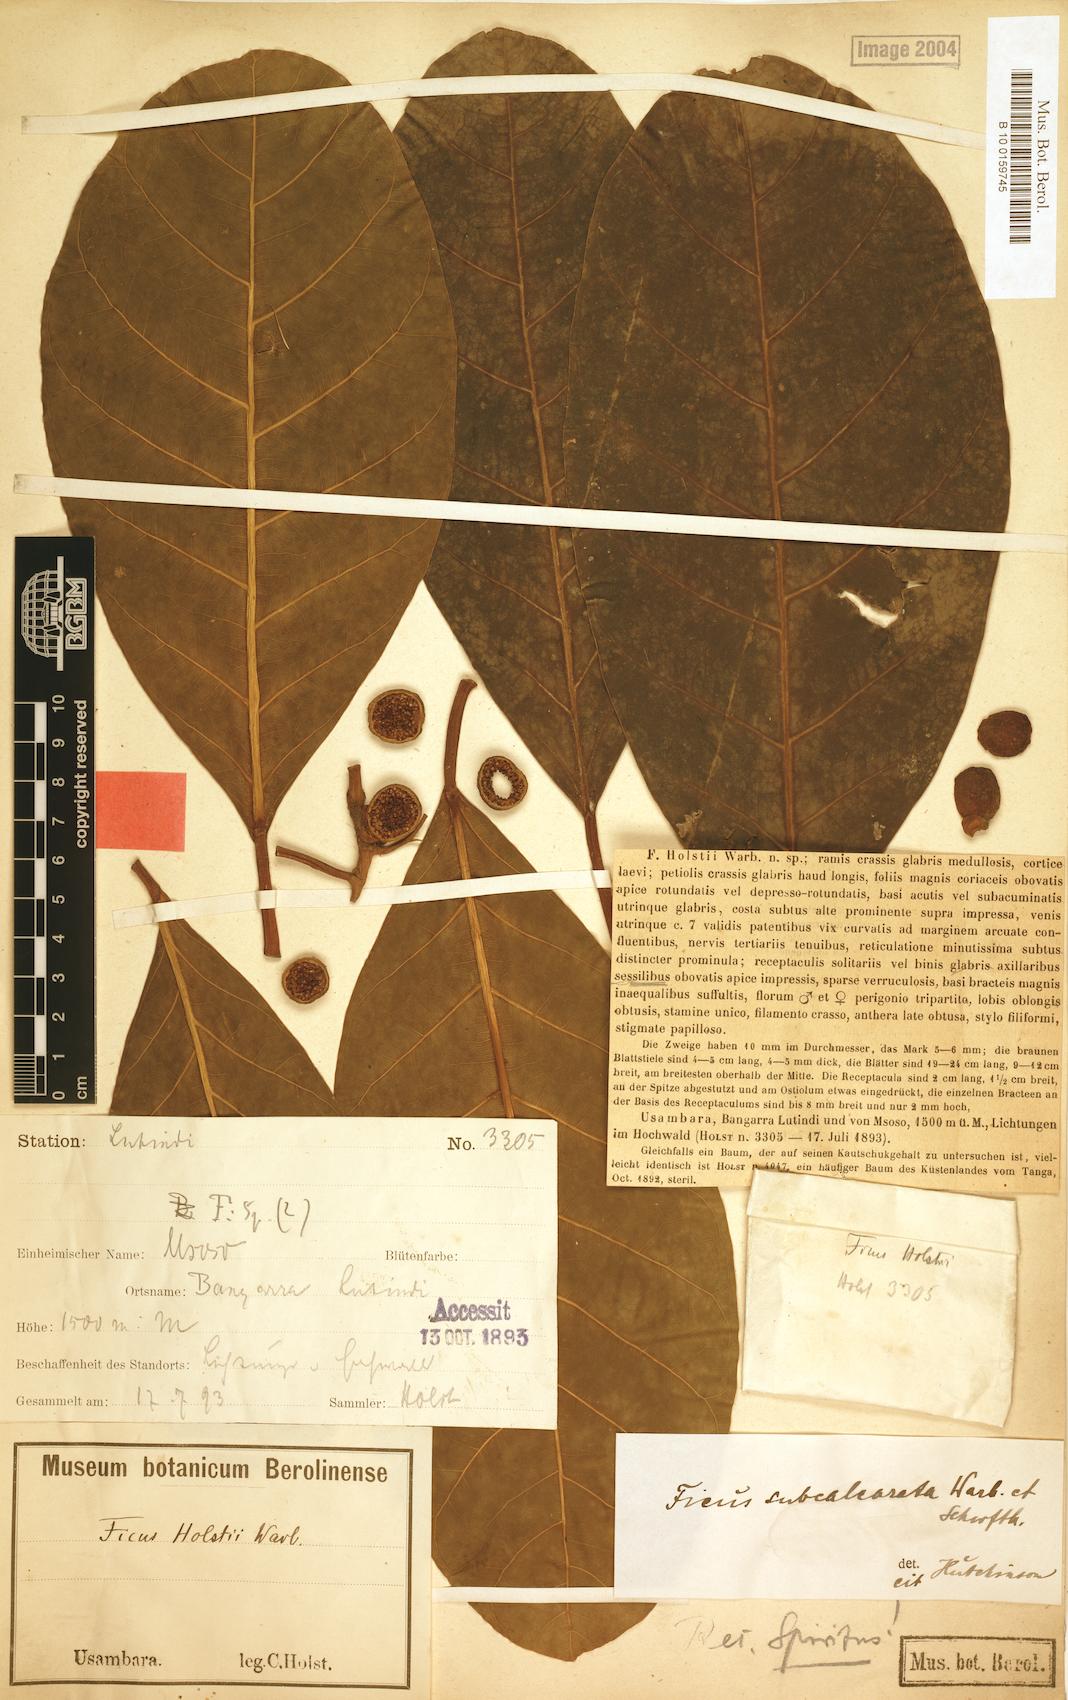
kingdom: Plantae
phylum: Tracheophyta
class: Magnoliopsida
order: Rosales
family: Moraceae
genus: Ficus
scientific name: Ficus lutea
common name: Giant-leaved fig
